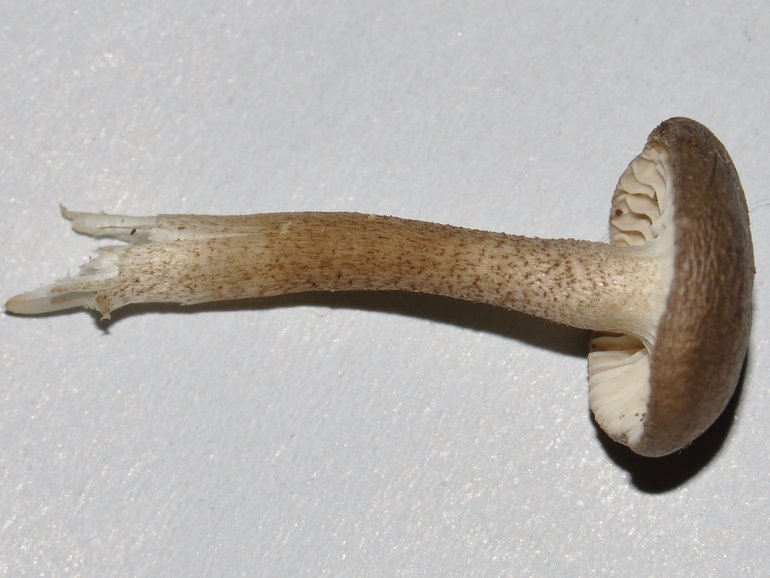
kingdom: Fungi
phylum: Basidiomycota
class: Agaricomycetes
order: Agaricales
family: Hygrophoraceae
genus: Hygrophorus
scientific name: Hygrophorus pustulatus
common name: mørkprikket sneglehat
